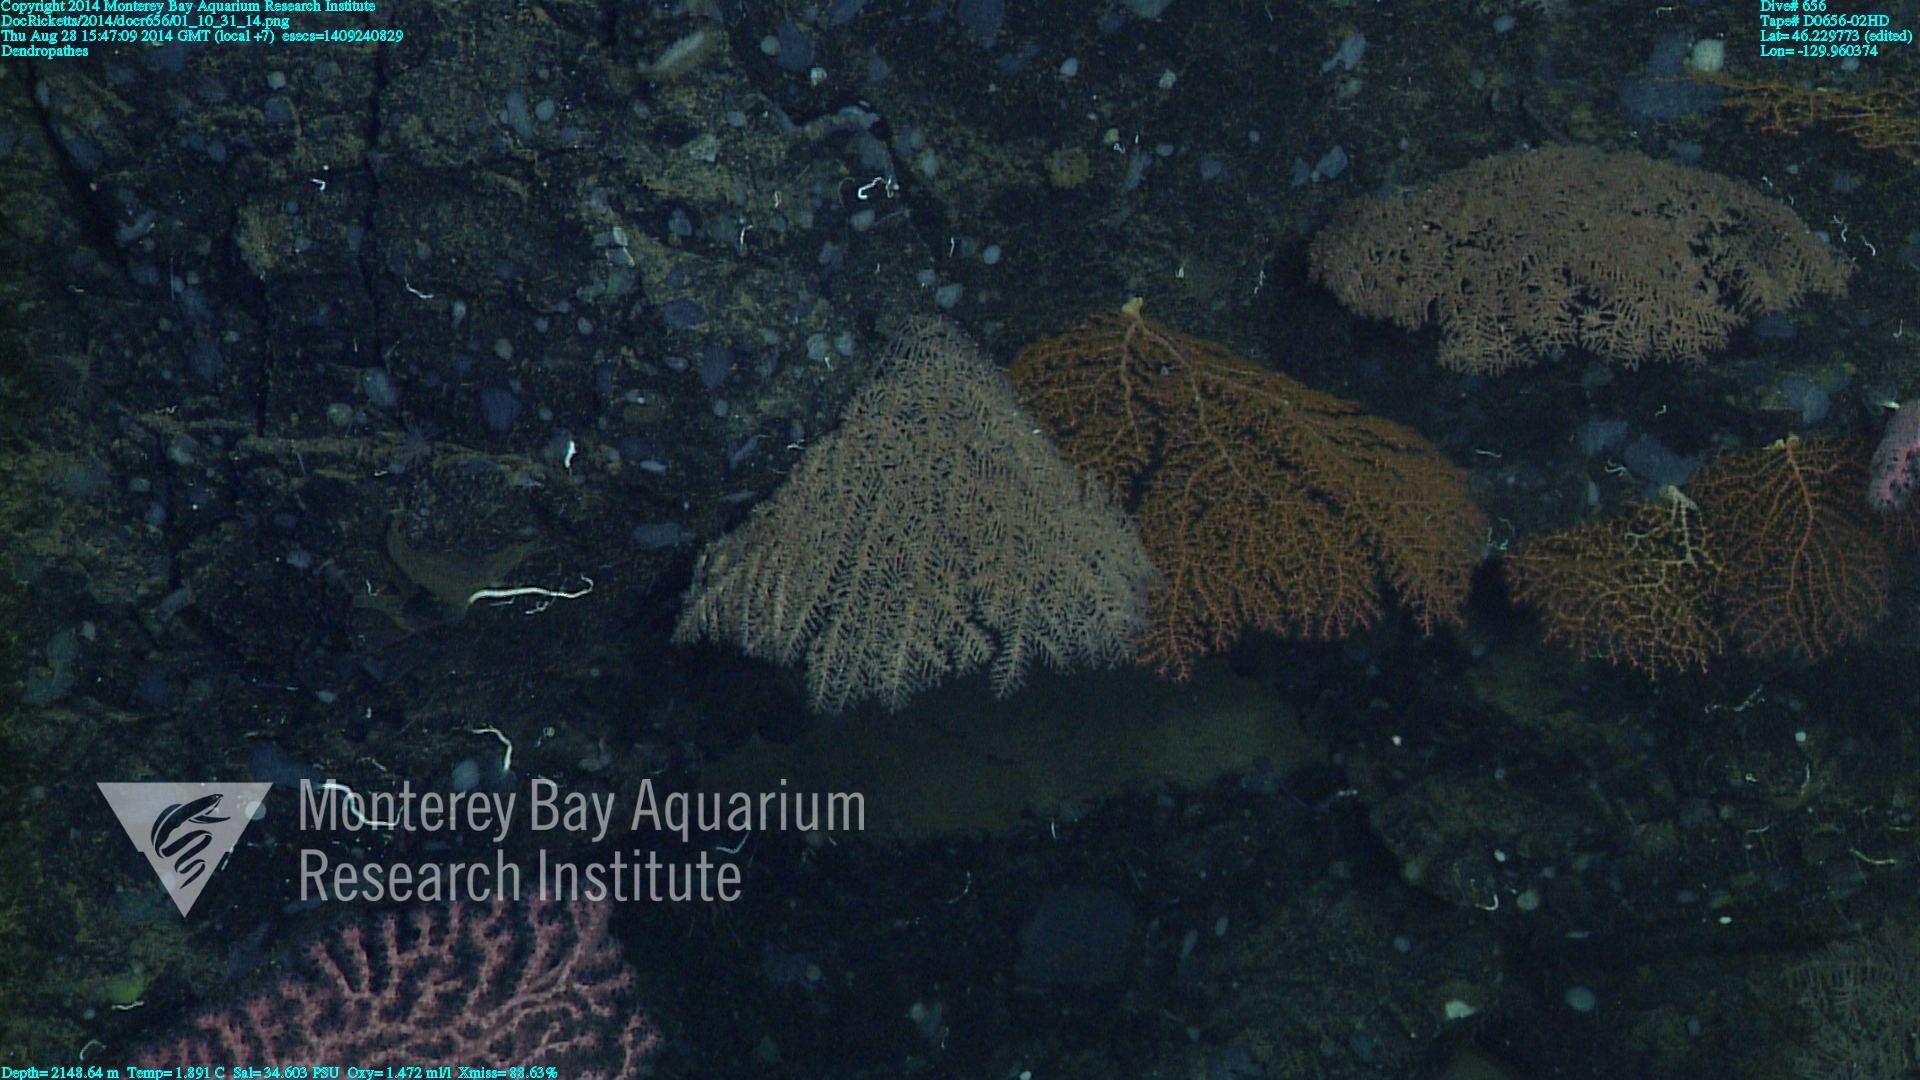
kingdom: Animalia
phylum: Cnidaria
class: Anthozoa
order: Antipatharia
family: Schizopathidae
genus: Dendropathes
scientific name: Dendropathes
